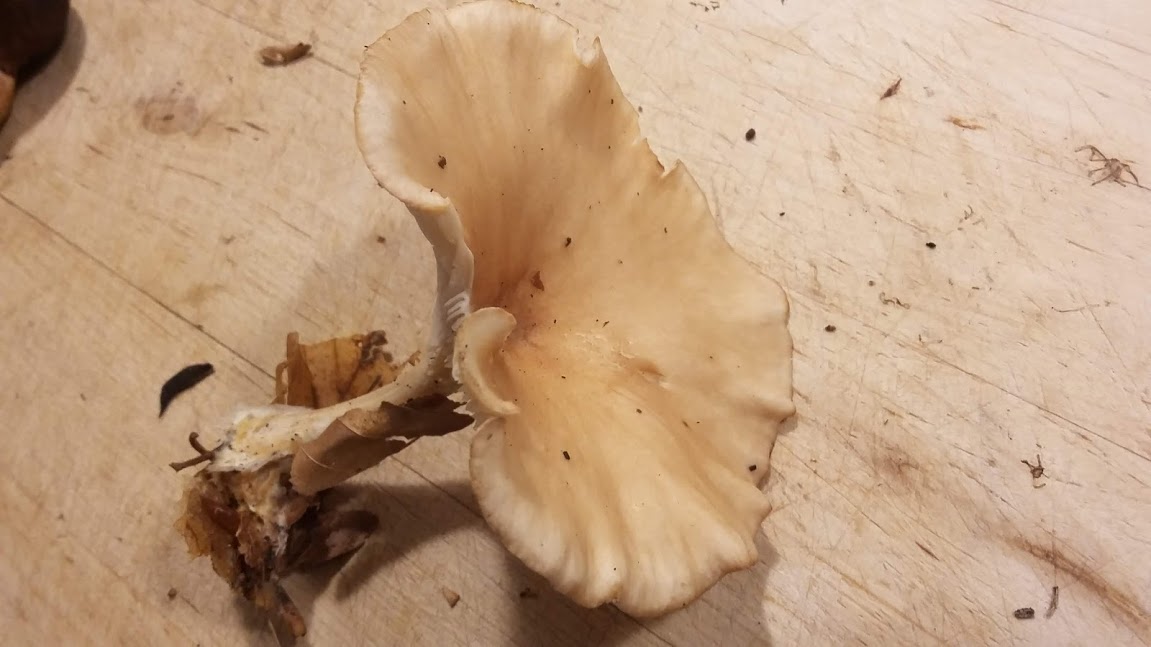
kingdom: Fungi
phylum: Basidiomycota
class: Agaricomycetes
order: Agaricales
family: Tricholomataceae
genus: Infundibulicybe
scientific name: Infundibulicybe gibba
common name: almindelig tragthat
